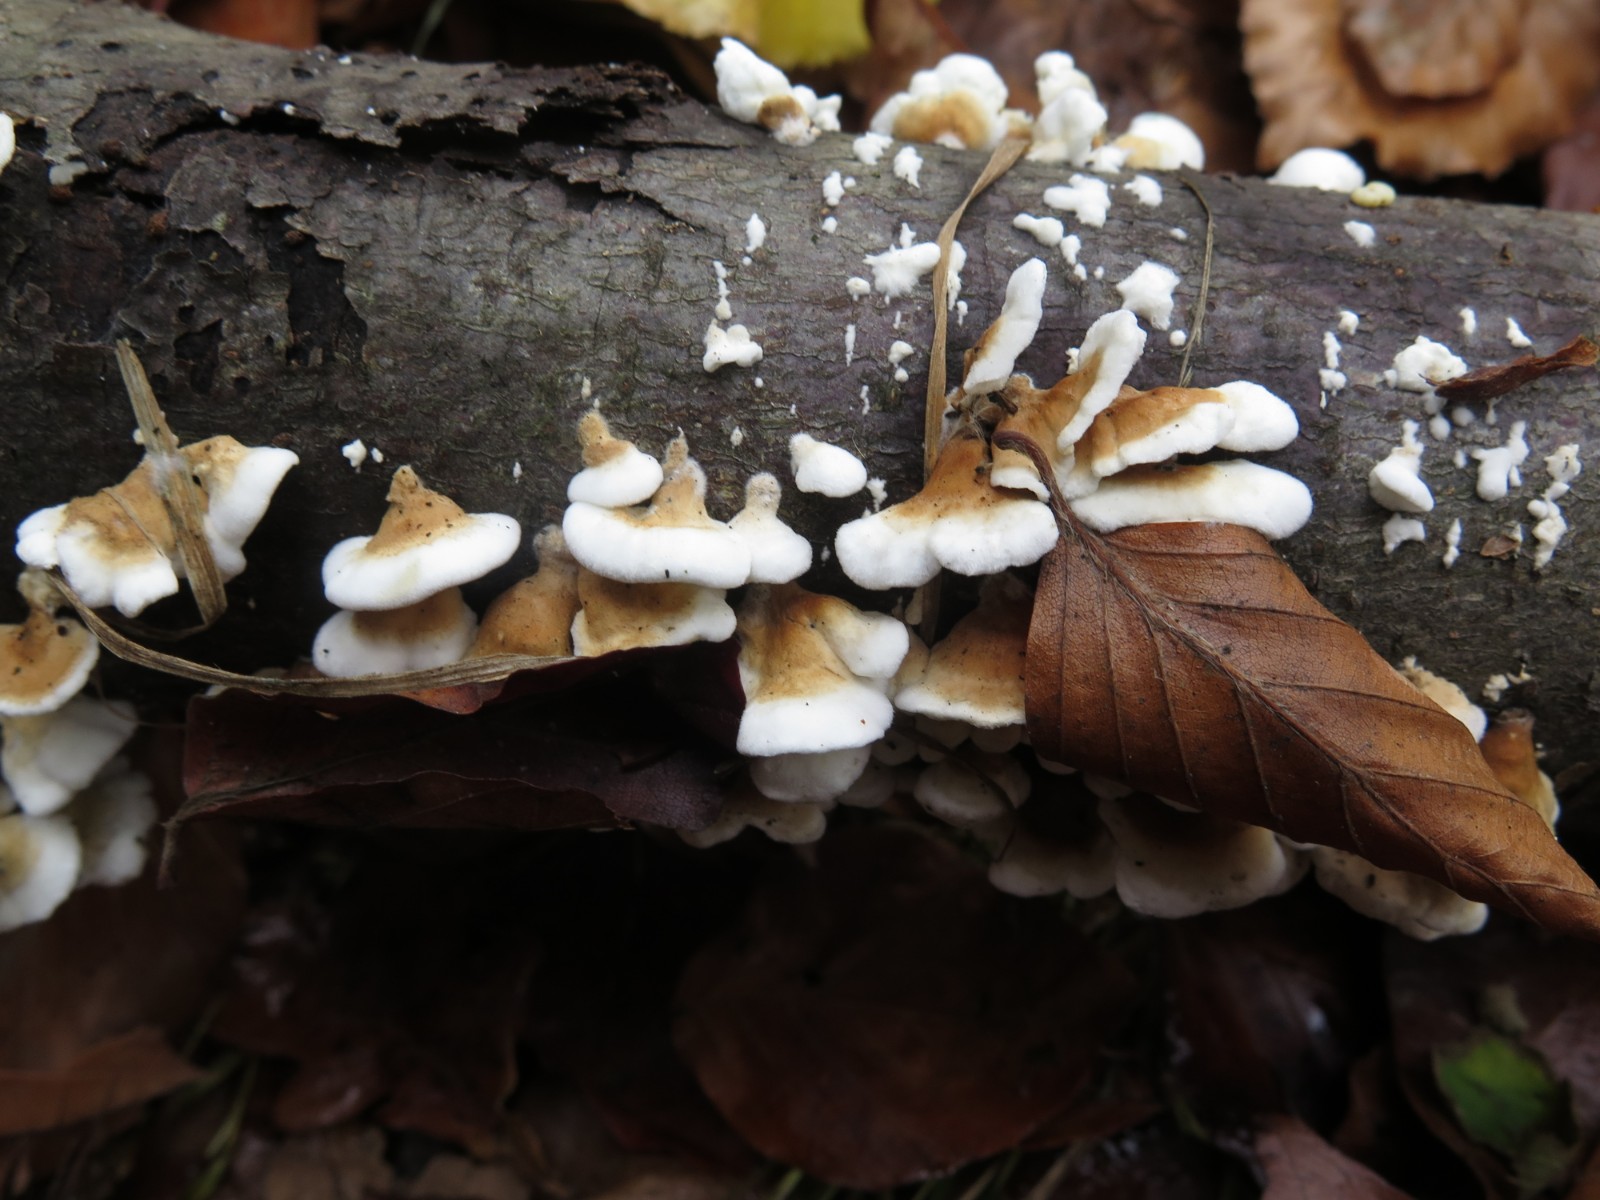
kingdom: Fungi
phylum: Basidiomycota
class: Agaricomycetes
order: Amylocorticiales
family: Amylocorticiaceae
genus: Plicaturopsis
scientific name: Plicaturopsis crispa
